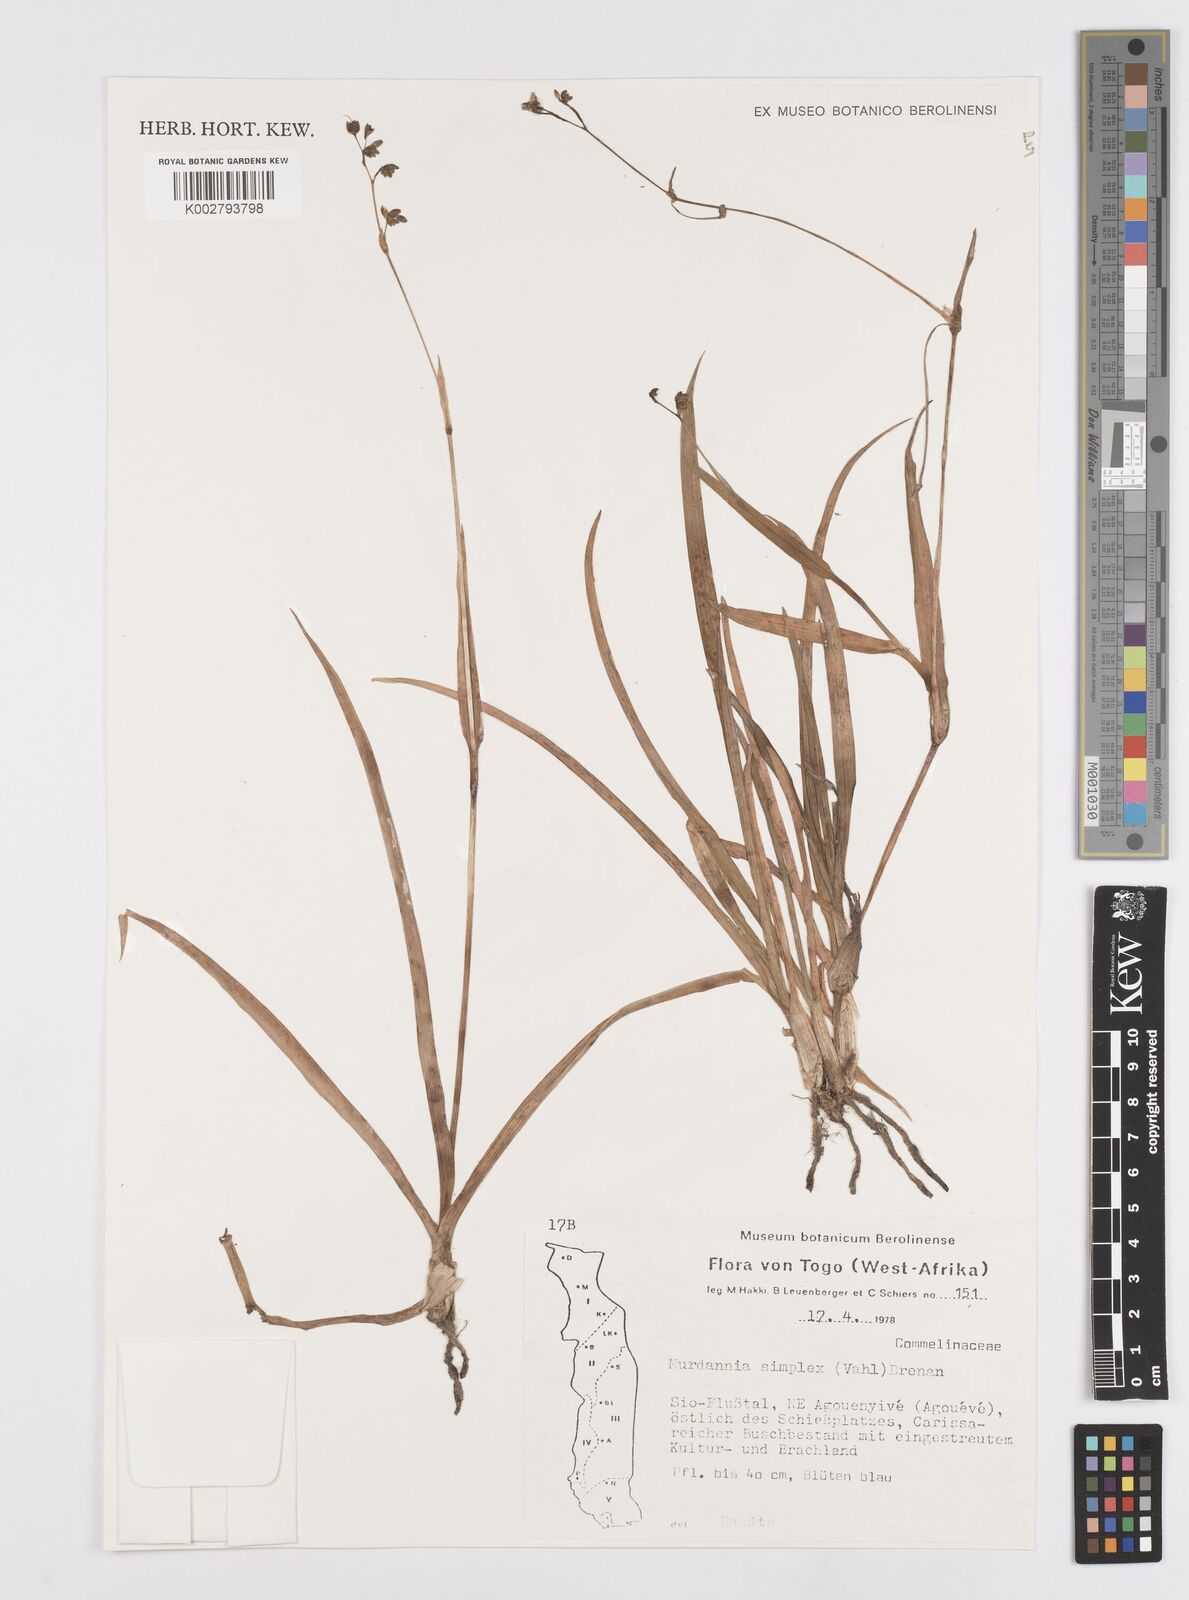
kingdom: Plantae
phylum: Tracheophyta
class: Liliopsida
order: Commelinales
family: Commelinaceae
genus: Murdannia
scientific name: Murdannia simplex
